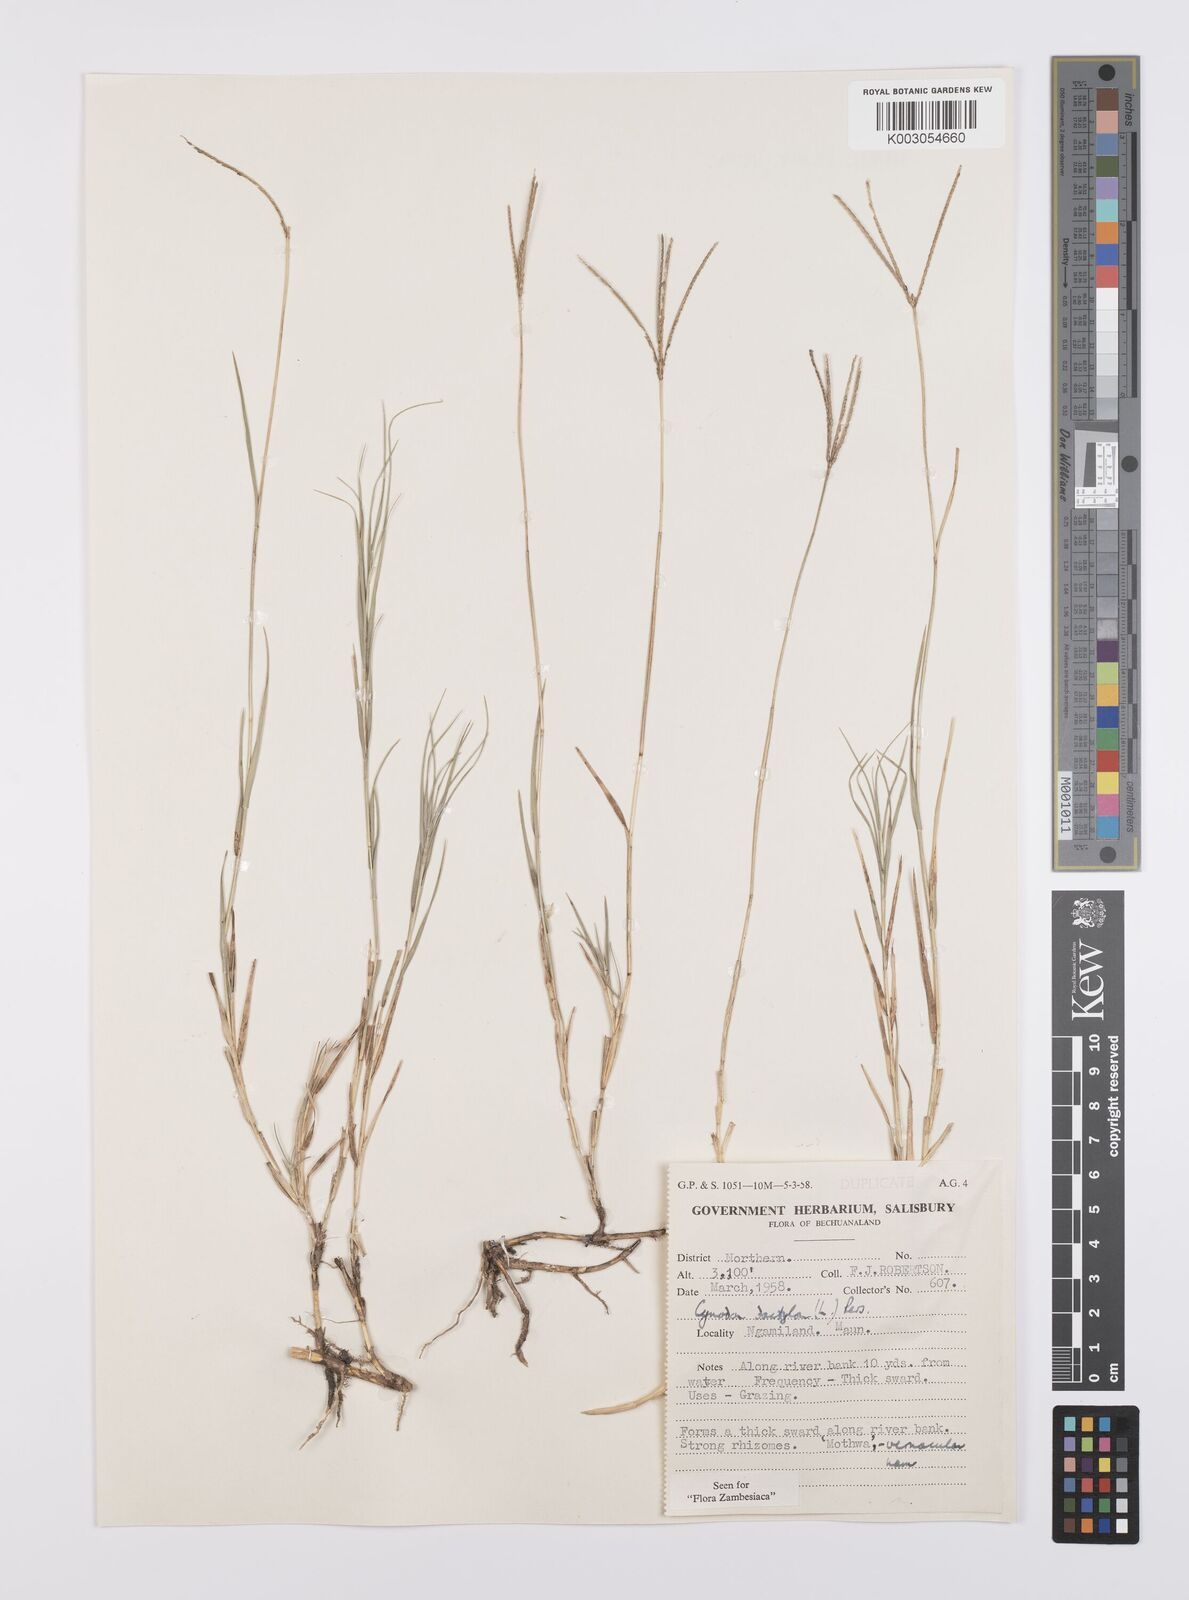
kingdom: Plantae
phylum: Tracheophyta
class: Liliopsida
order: Poales
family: Poaceae
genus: Cynodon
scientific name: Cynodon dactylon
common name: Bermuda grass
